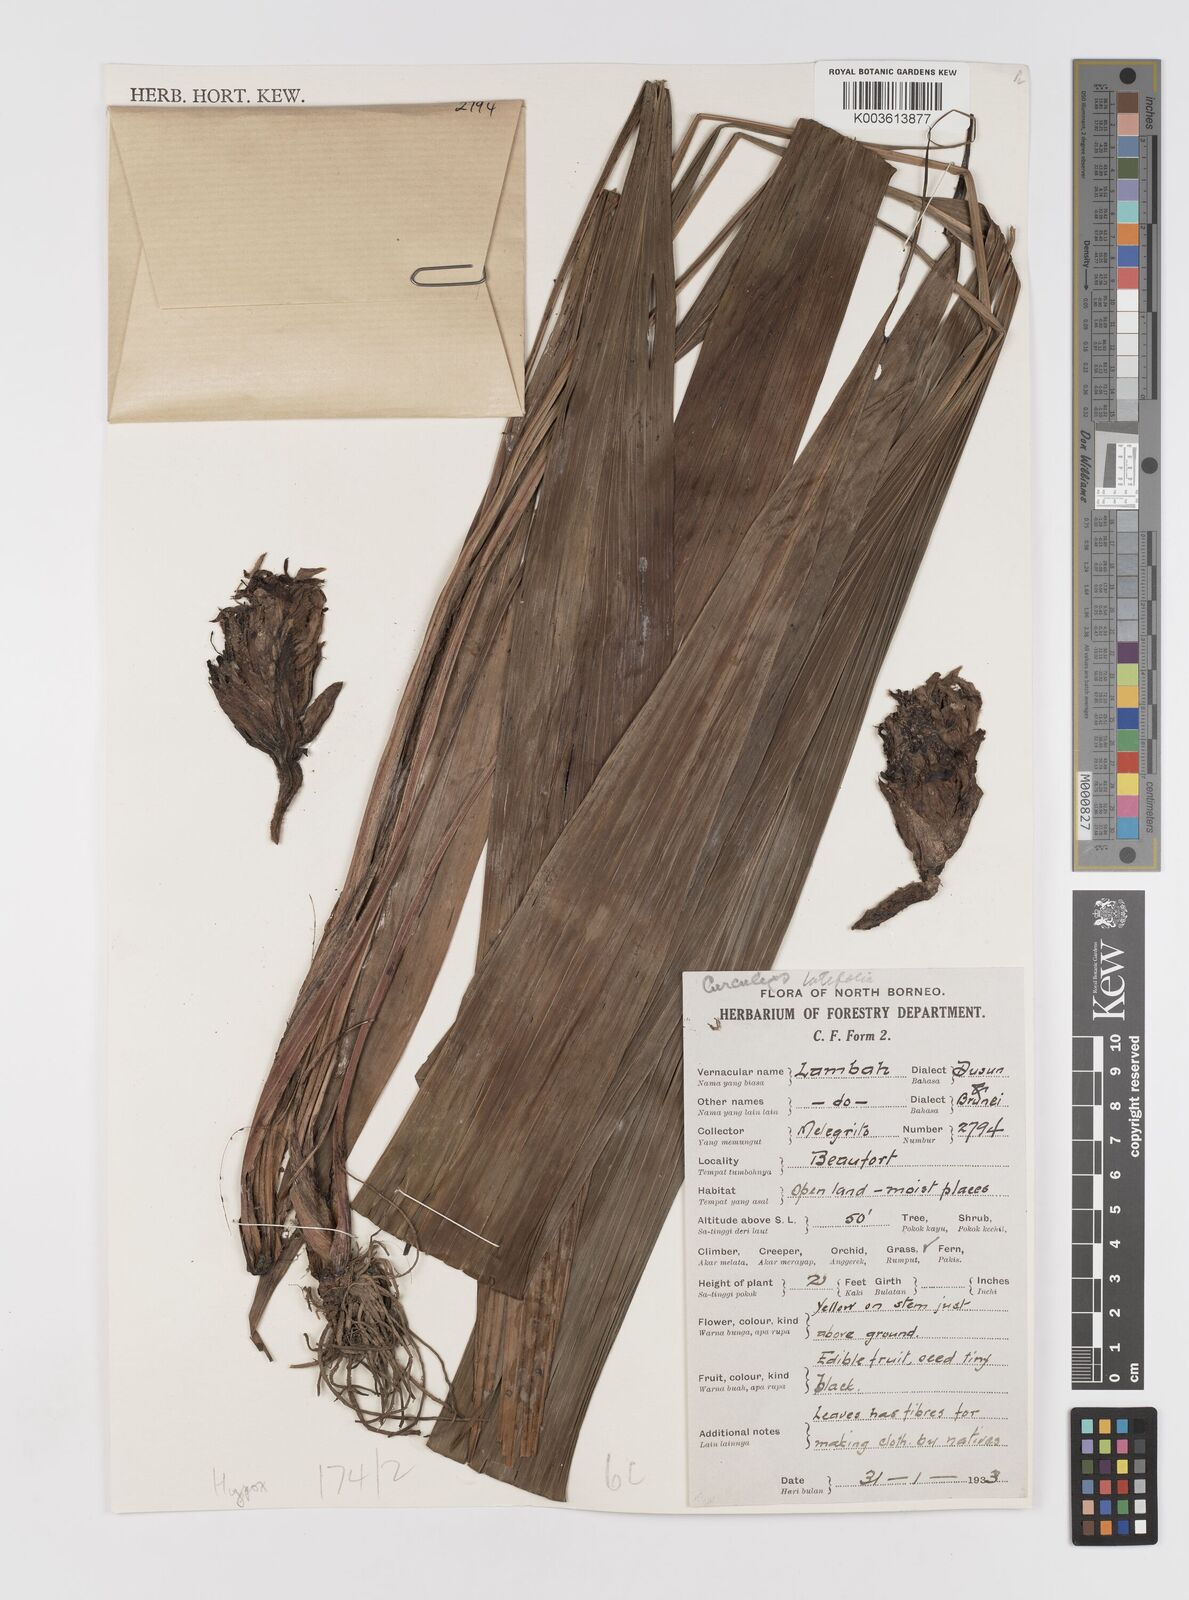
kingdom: Plantae
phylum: Tracheophyta
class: Liliopsida
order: Asparagales
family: Hypoxidaceae
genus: Curculigo
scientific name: Curculigo latifolia
